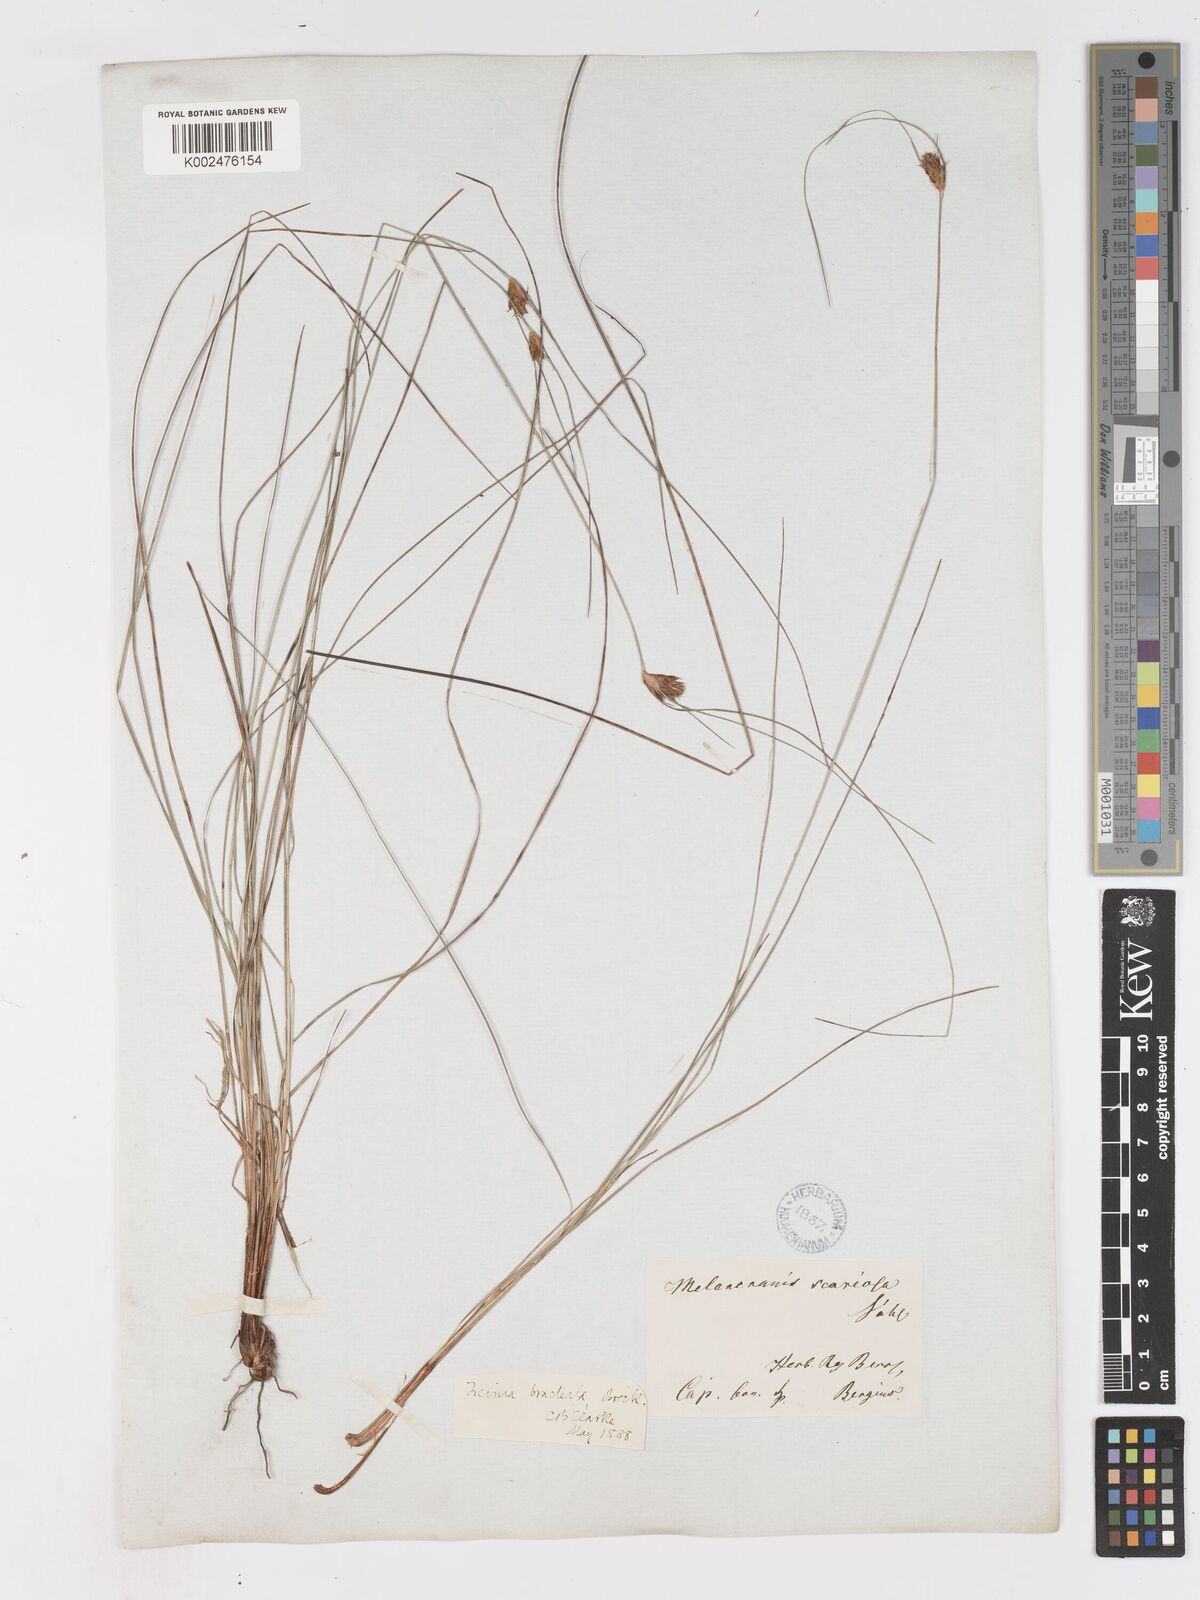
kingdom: Plantae
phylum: Tracheophyta
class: Liliopsida
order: Poales
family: Cyperaceae
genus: Ficinia
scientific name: Ficinia nigrescens
